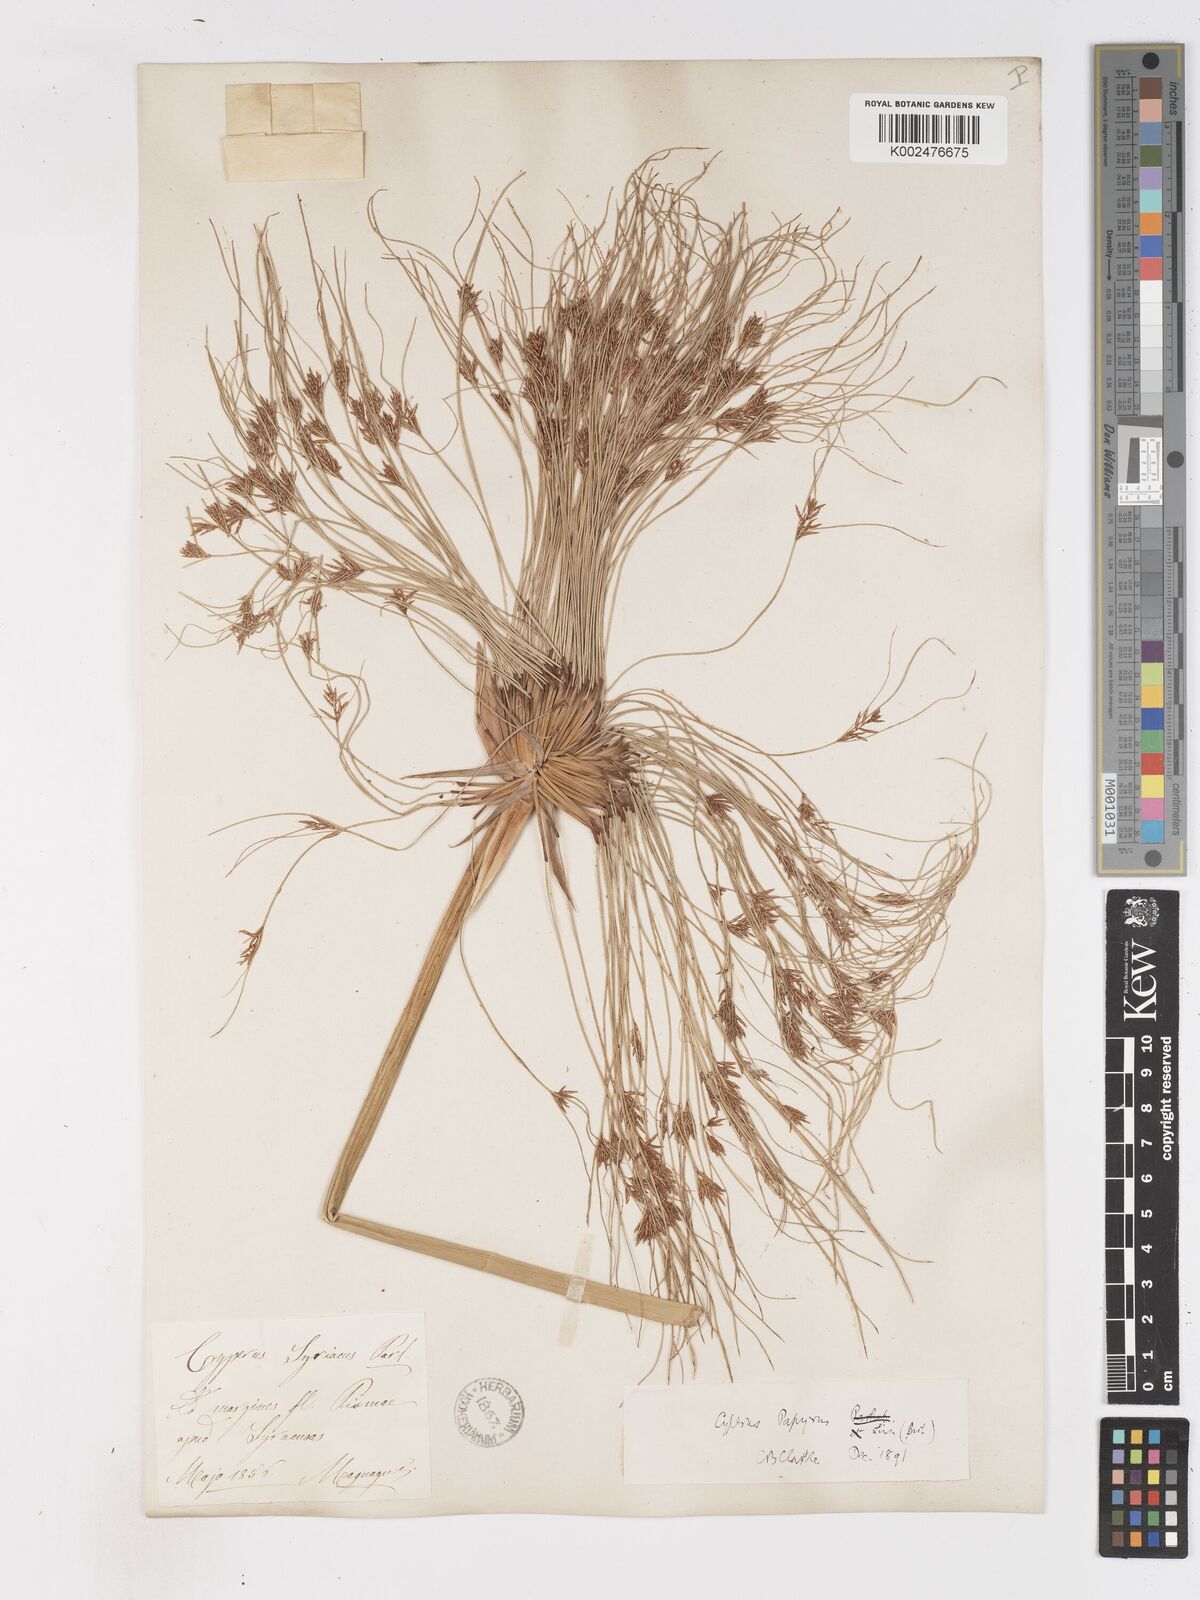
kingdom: Plantae
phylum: Tracheophyta
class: Liliopsida
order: Poales
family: Cyperaceae
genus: Cyperus
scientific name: Cyperus papyrus
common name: Papyrus
